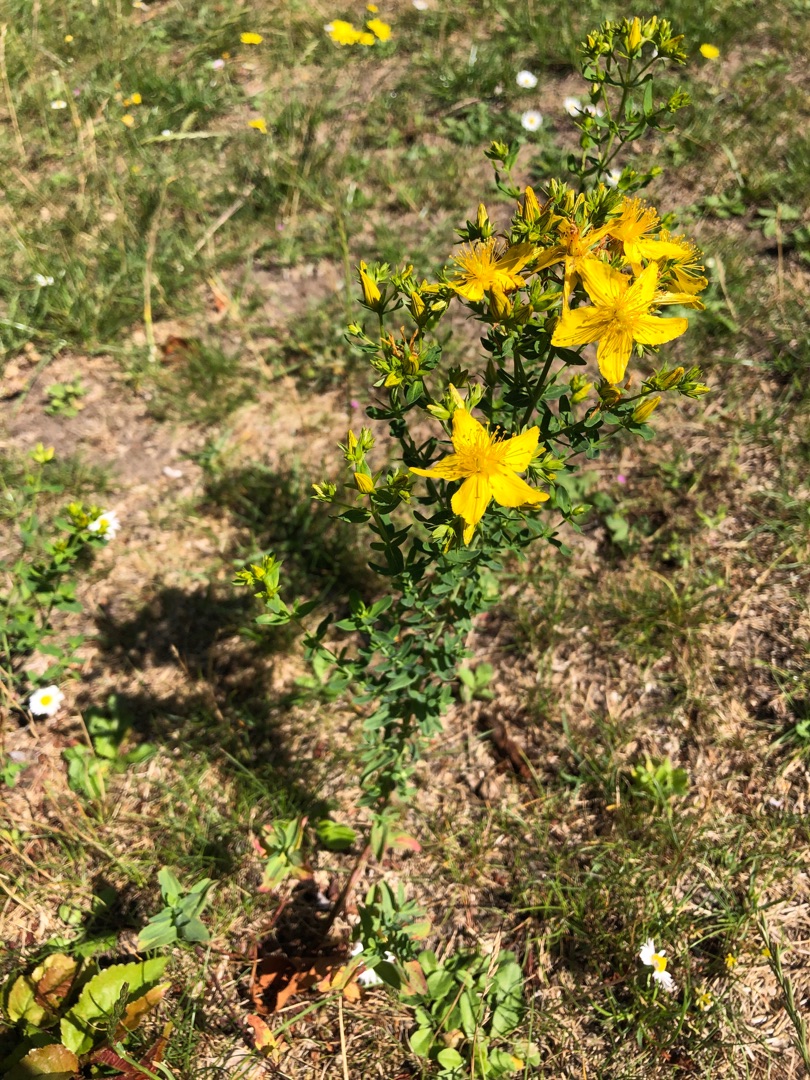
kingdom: Plantae
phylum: Tracheophyta
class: Magnoliopsida
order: Malpighiales
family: Hypericaceae
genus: Hypericum
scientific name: Hypericum perforatum
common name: Prikbladet perikon
